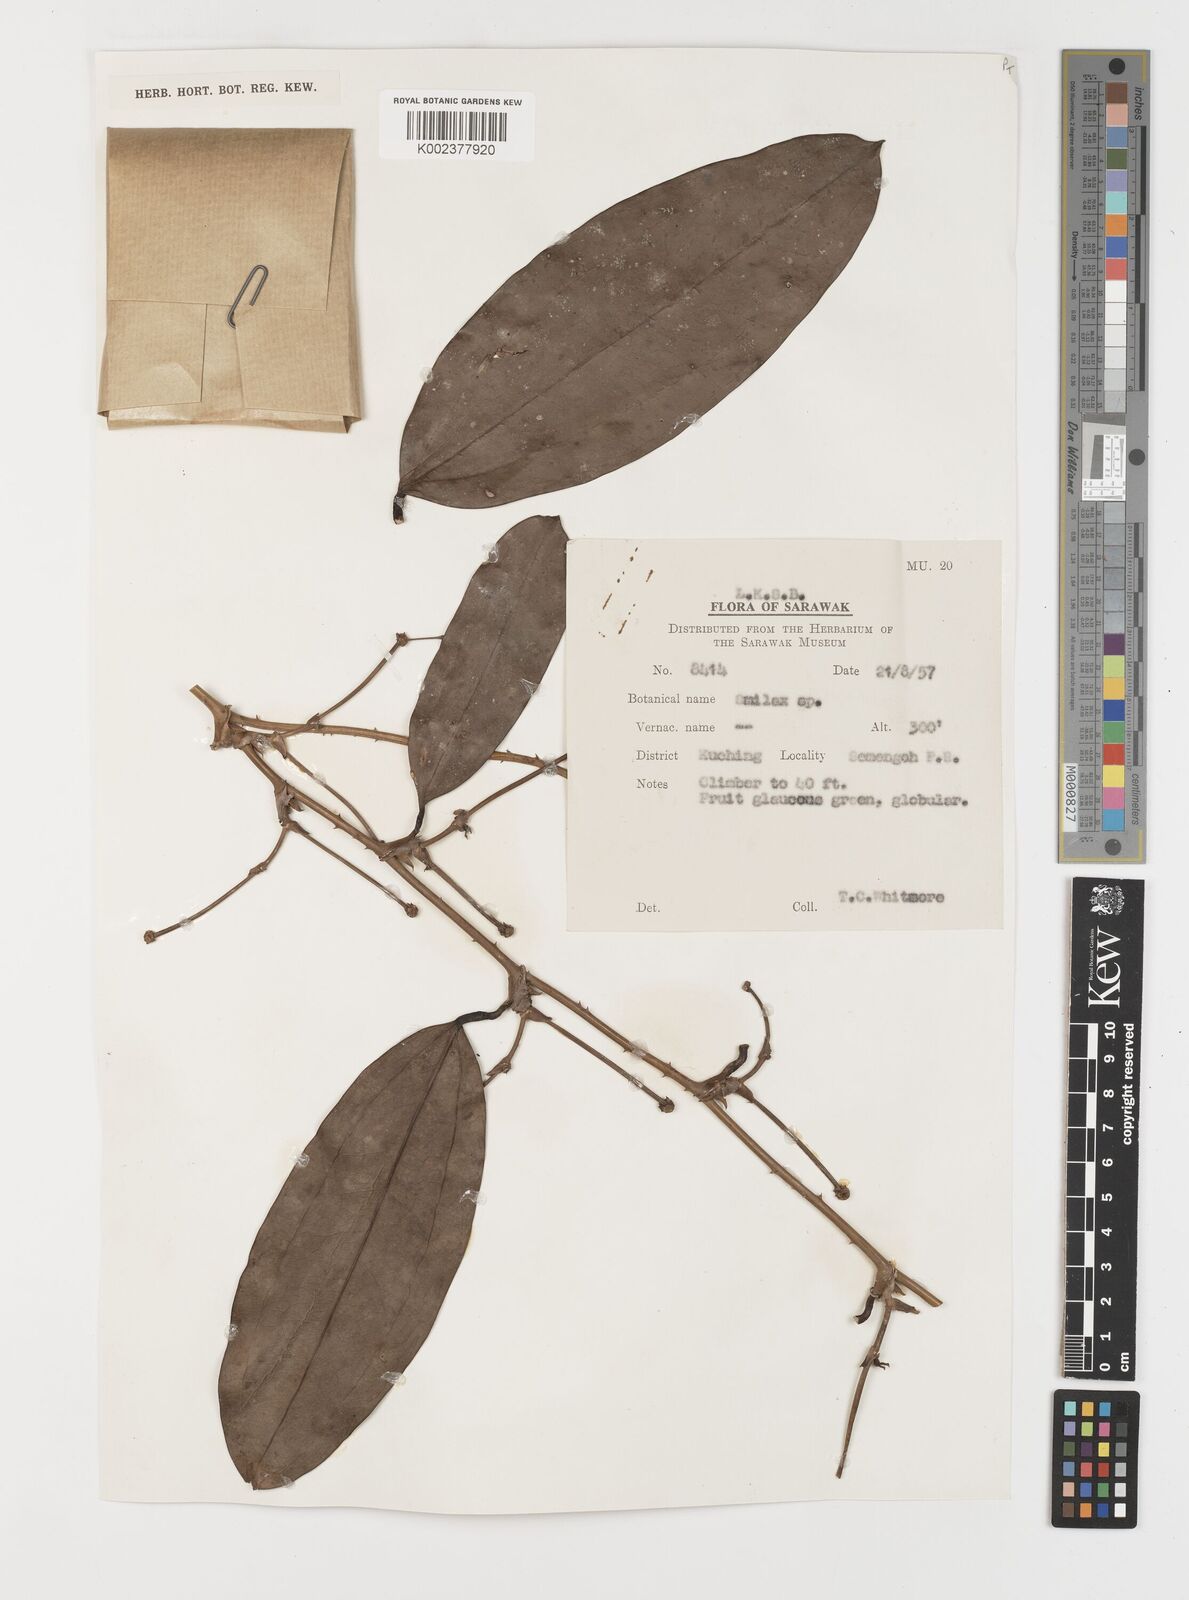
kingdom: Plantae
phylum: Tracheophyta
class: Liliopsida
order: Liliales
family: Smilacaceae
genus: Smilax
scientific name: Smilax
